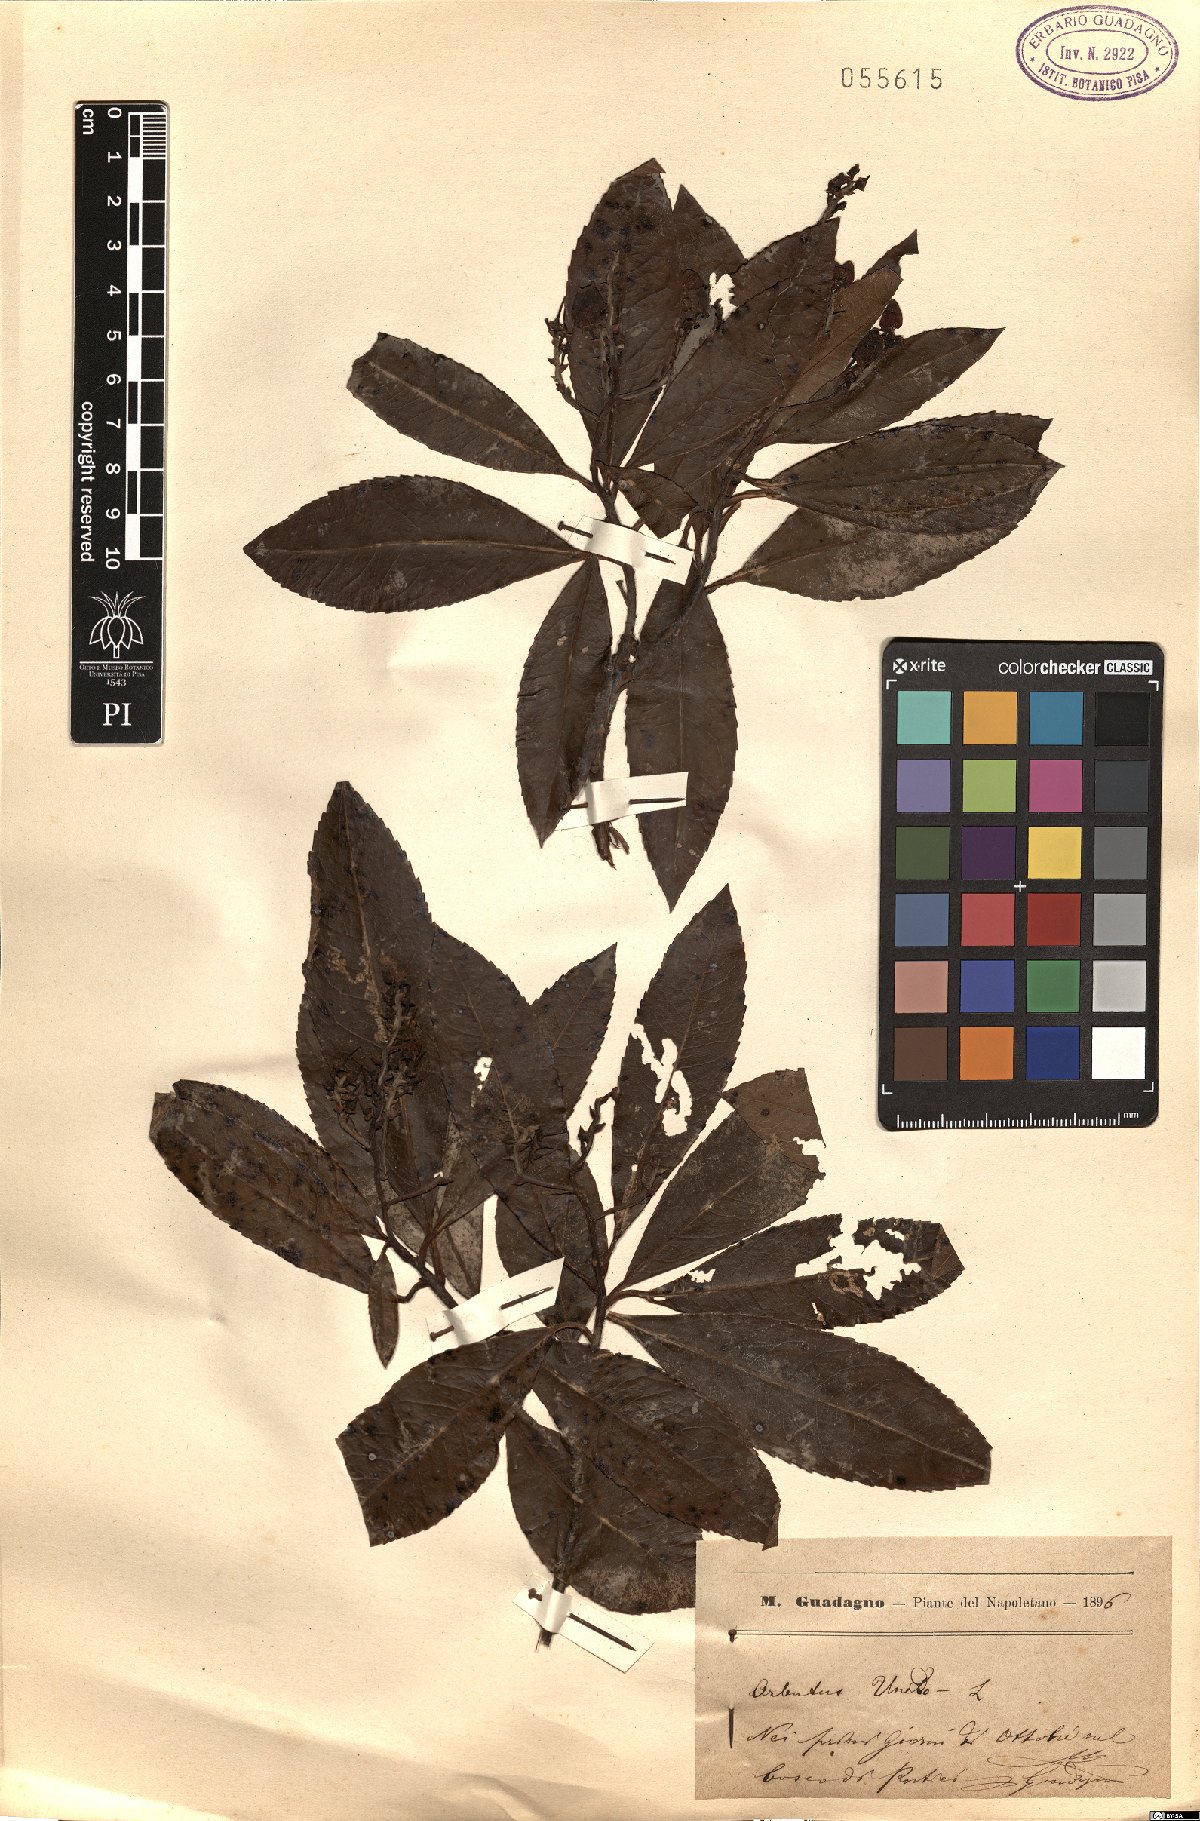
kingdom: Plantae
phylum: Tracheophyta
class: Magnoliopsida
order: Ericales
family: Ericaceae
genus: Arbutus
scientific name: Arbutus unedo
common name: Strawberry-tree
